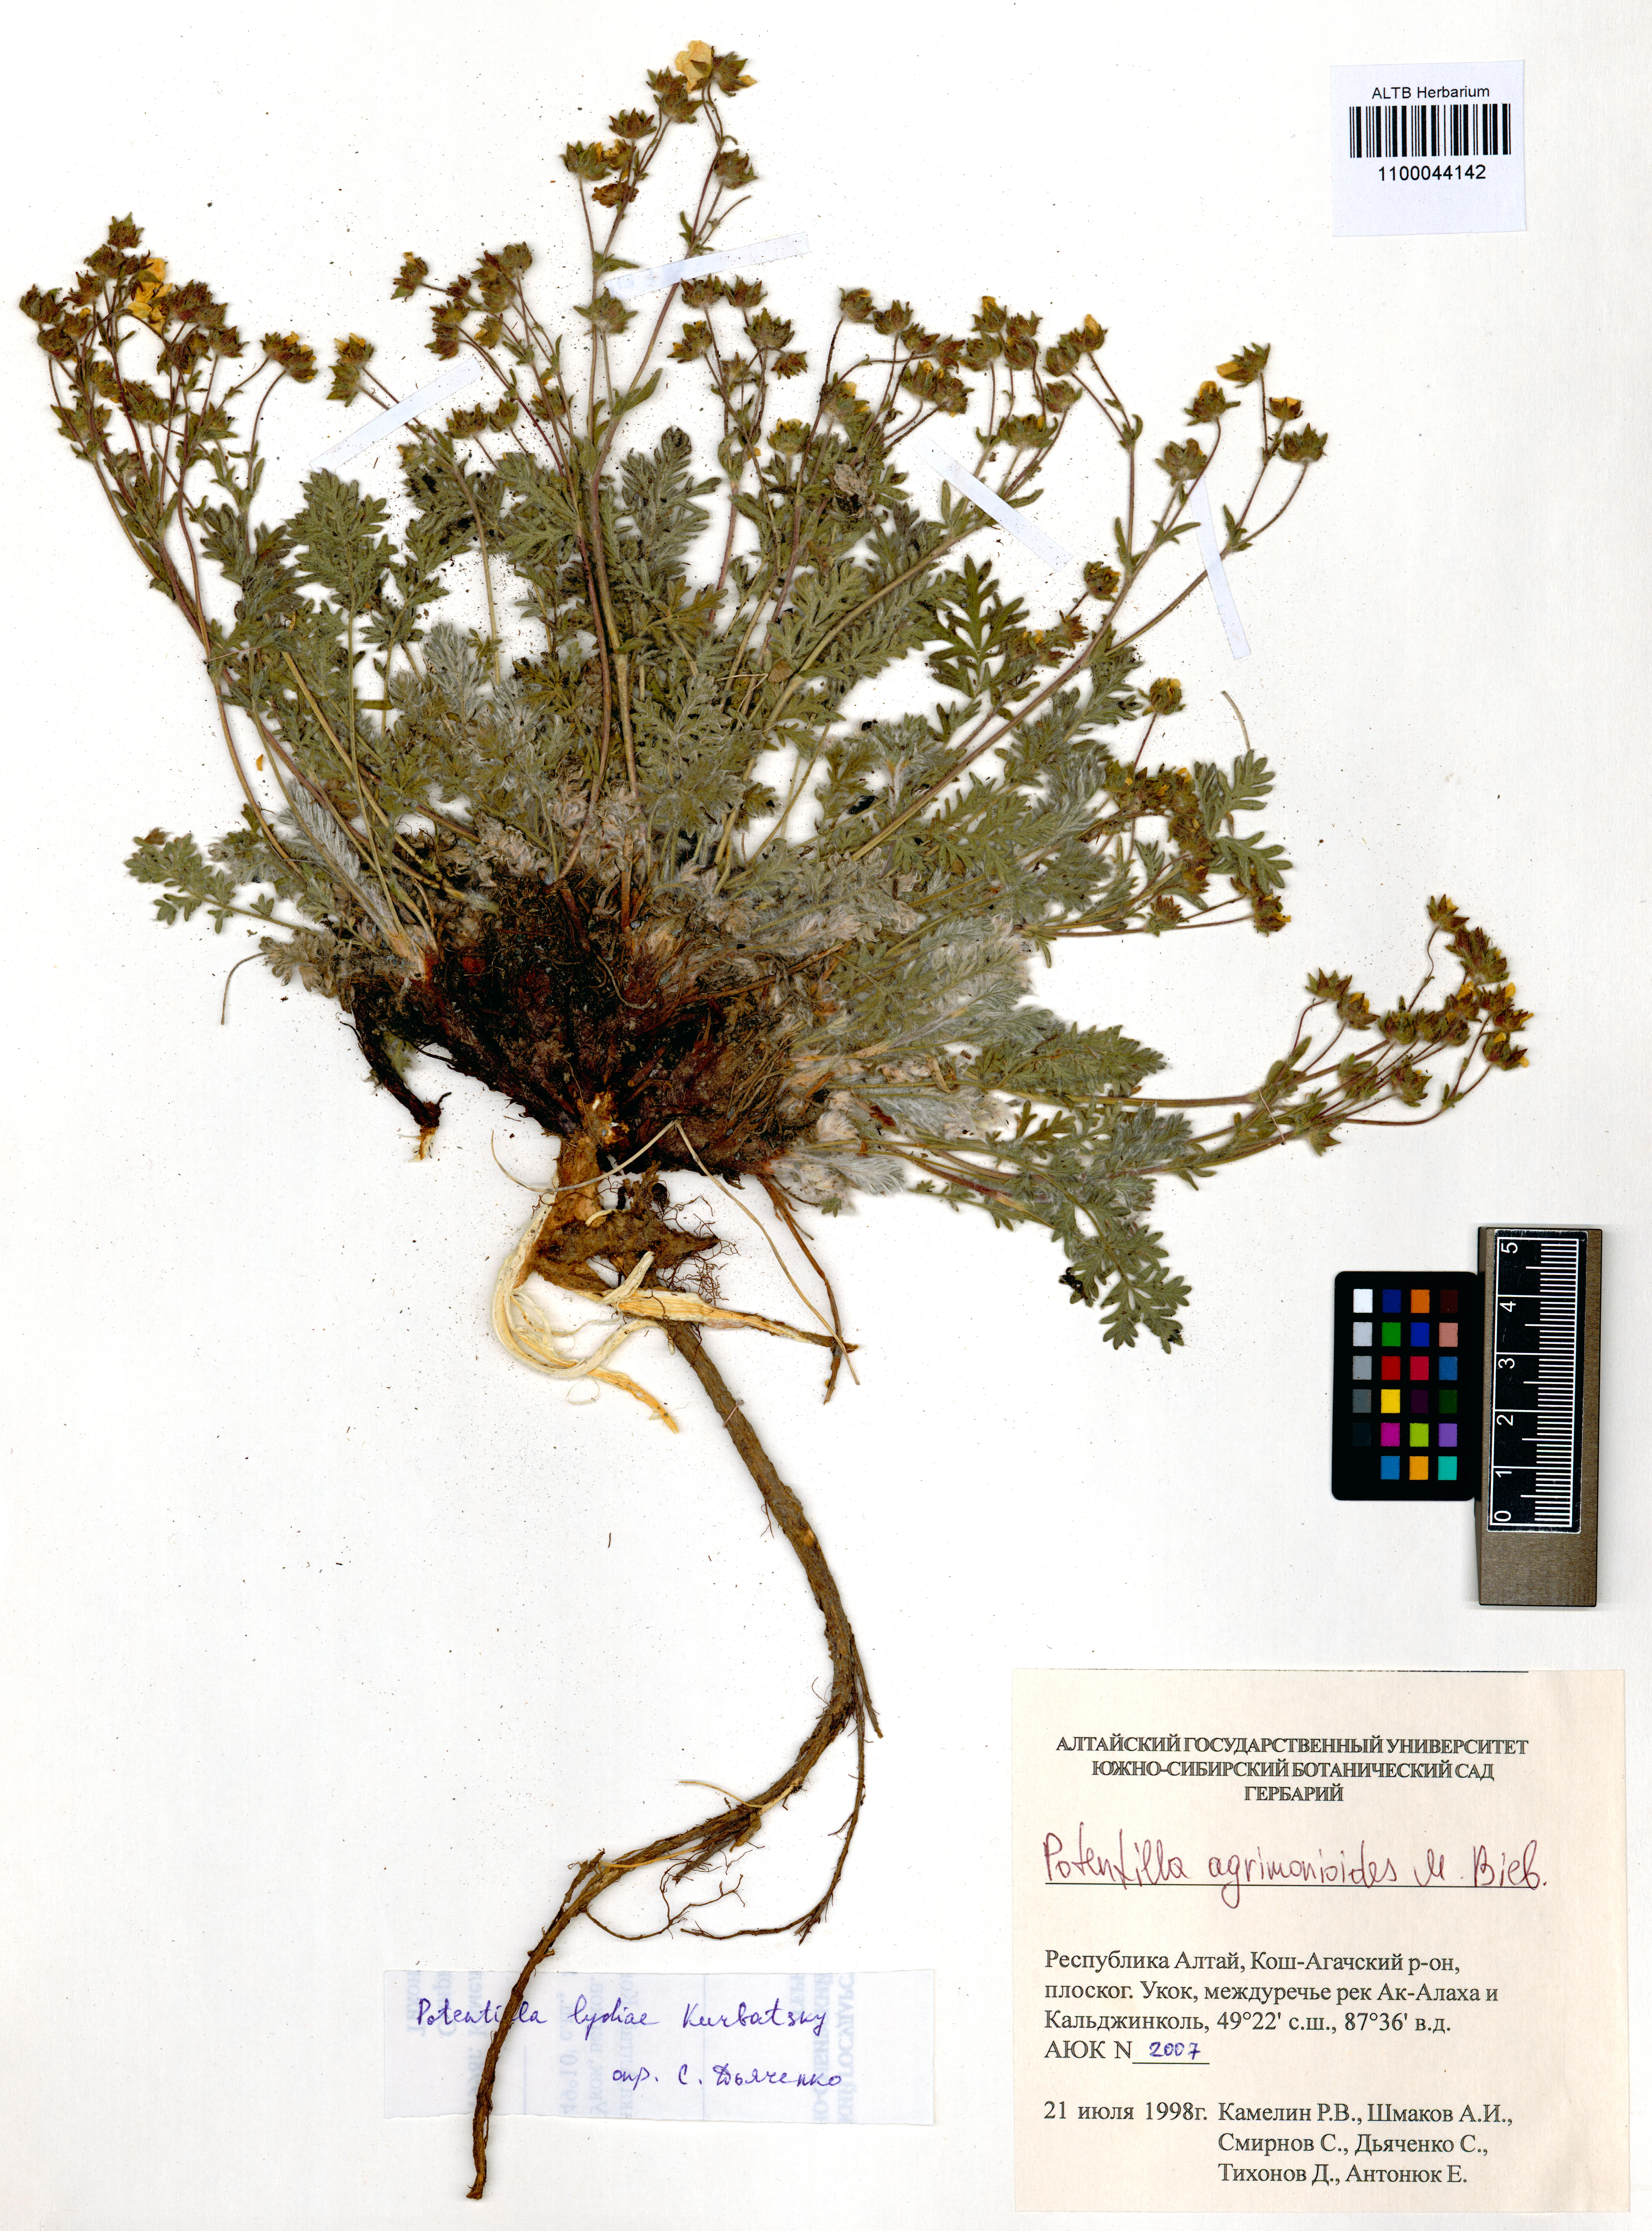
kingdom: Plantae
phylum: Tracheophyta
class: Magnoliopsida
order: Rosales
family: Rosaceae
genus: Potentilla
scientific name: Potentilla agrimonioides
